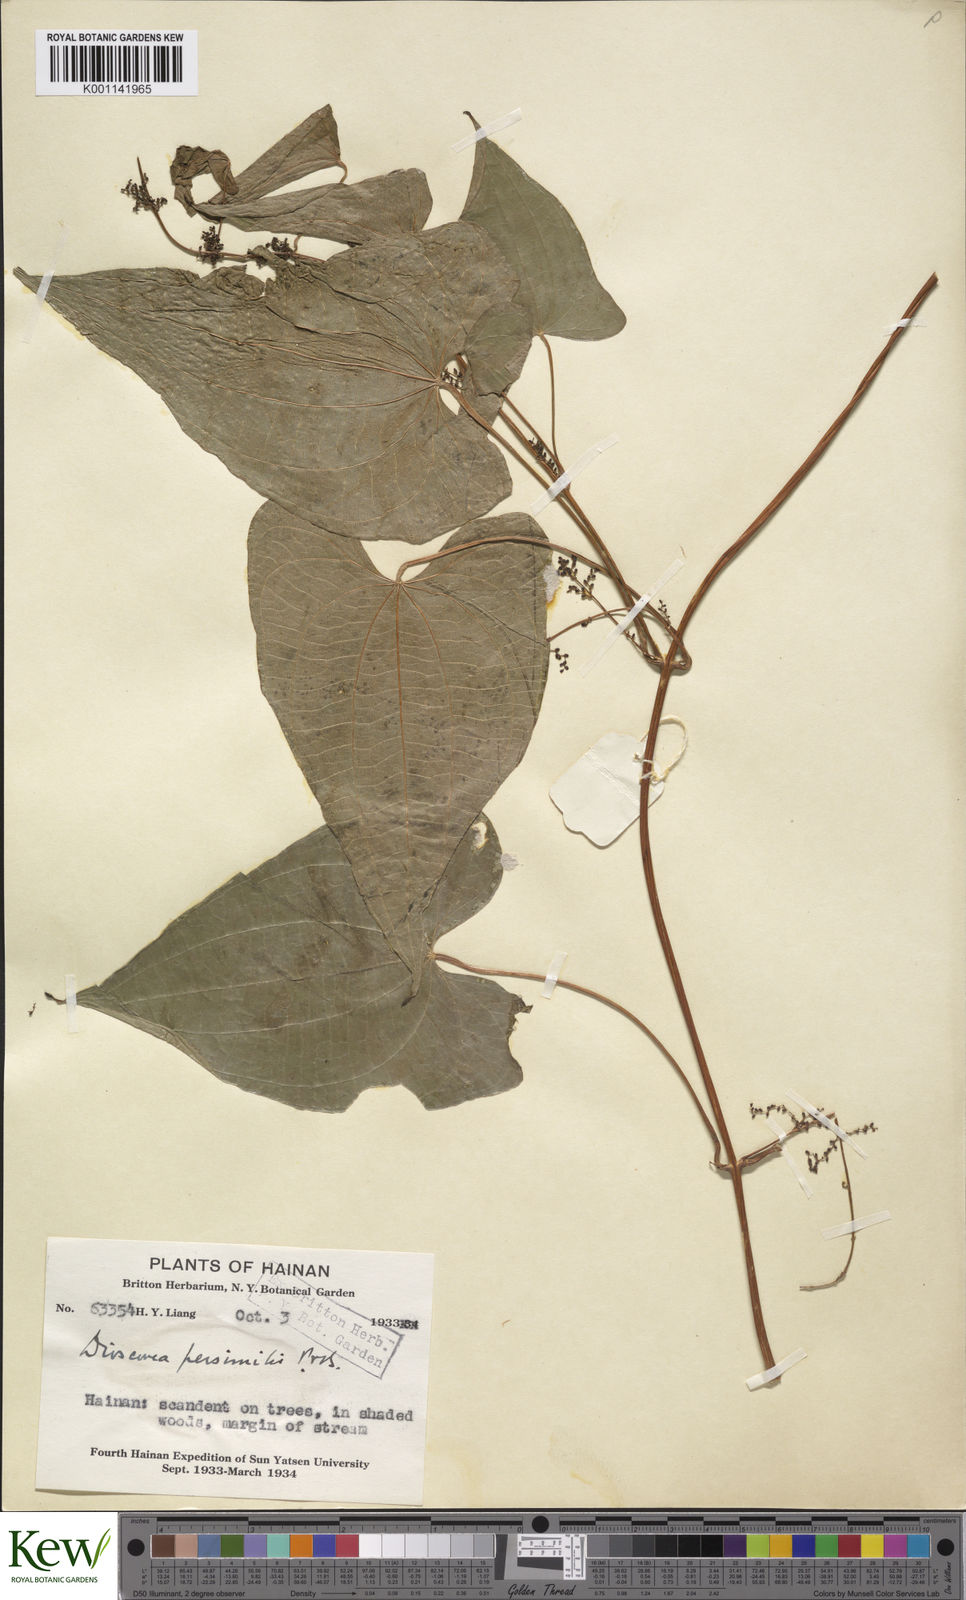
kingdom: Plantae
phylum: Tracheophyta
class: Liliopsida
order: Dioscoreales
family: Dioscoreaceae
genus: Dioscorea
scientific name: Dioscorea hamiltonii
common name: Mountain yam
